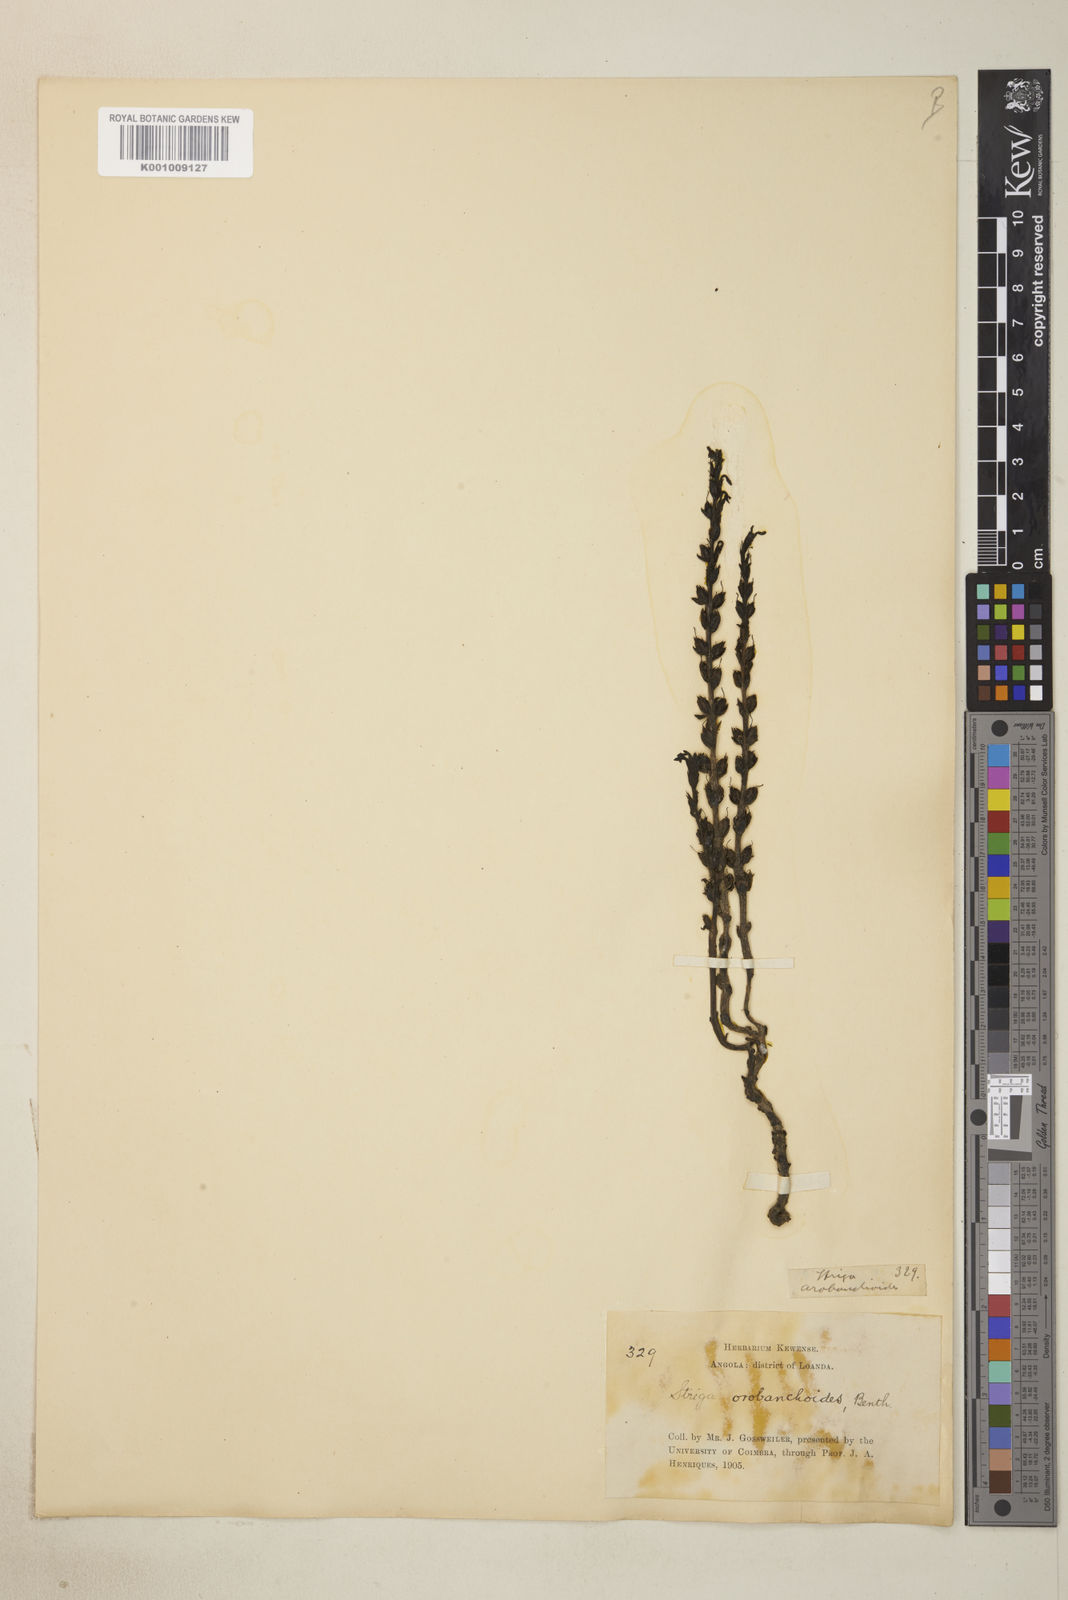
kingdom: Plantae
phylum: Tracheophyta
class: Magnoliopsida
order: Lamiales
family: Orobanchaceae
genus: Striga
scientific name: Striga gesnerioides
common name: Cowpea witchweed
